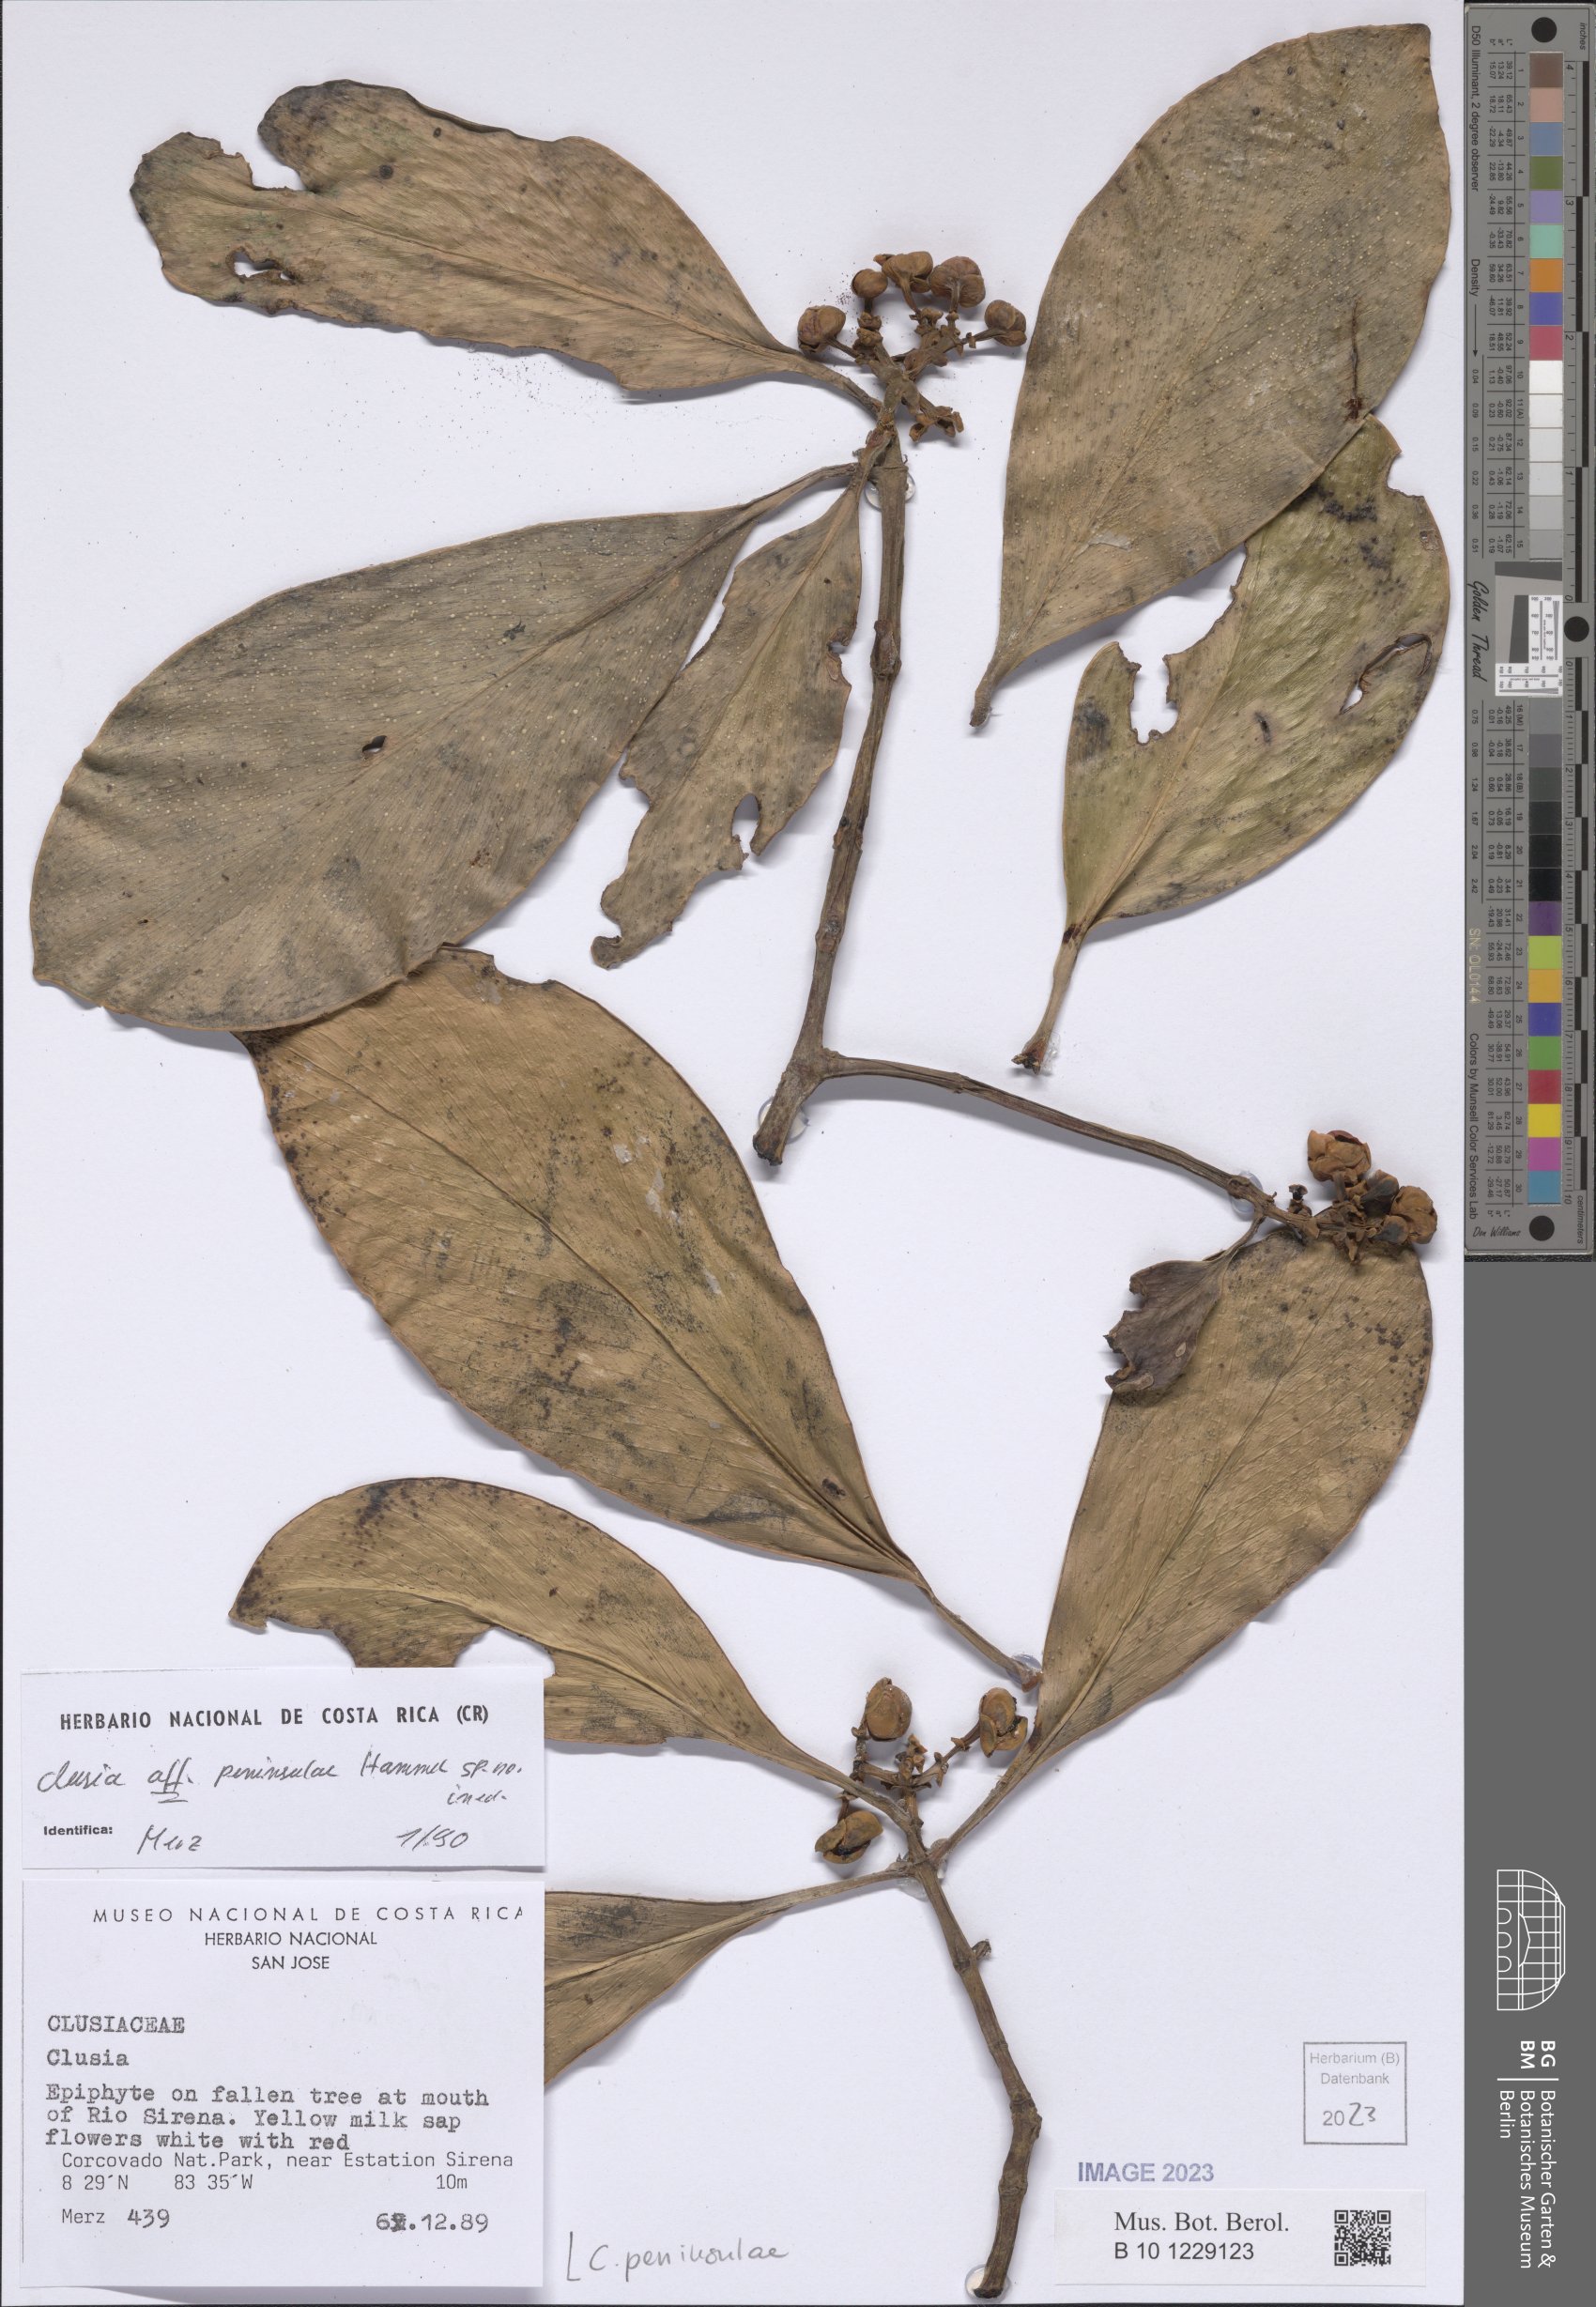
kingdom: Plantae
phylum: Tracheophyta
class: Magnoliopsida
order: Malpighiales
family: Clusiaceae
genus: Clusia
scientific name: Clusia peninsulae
